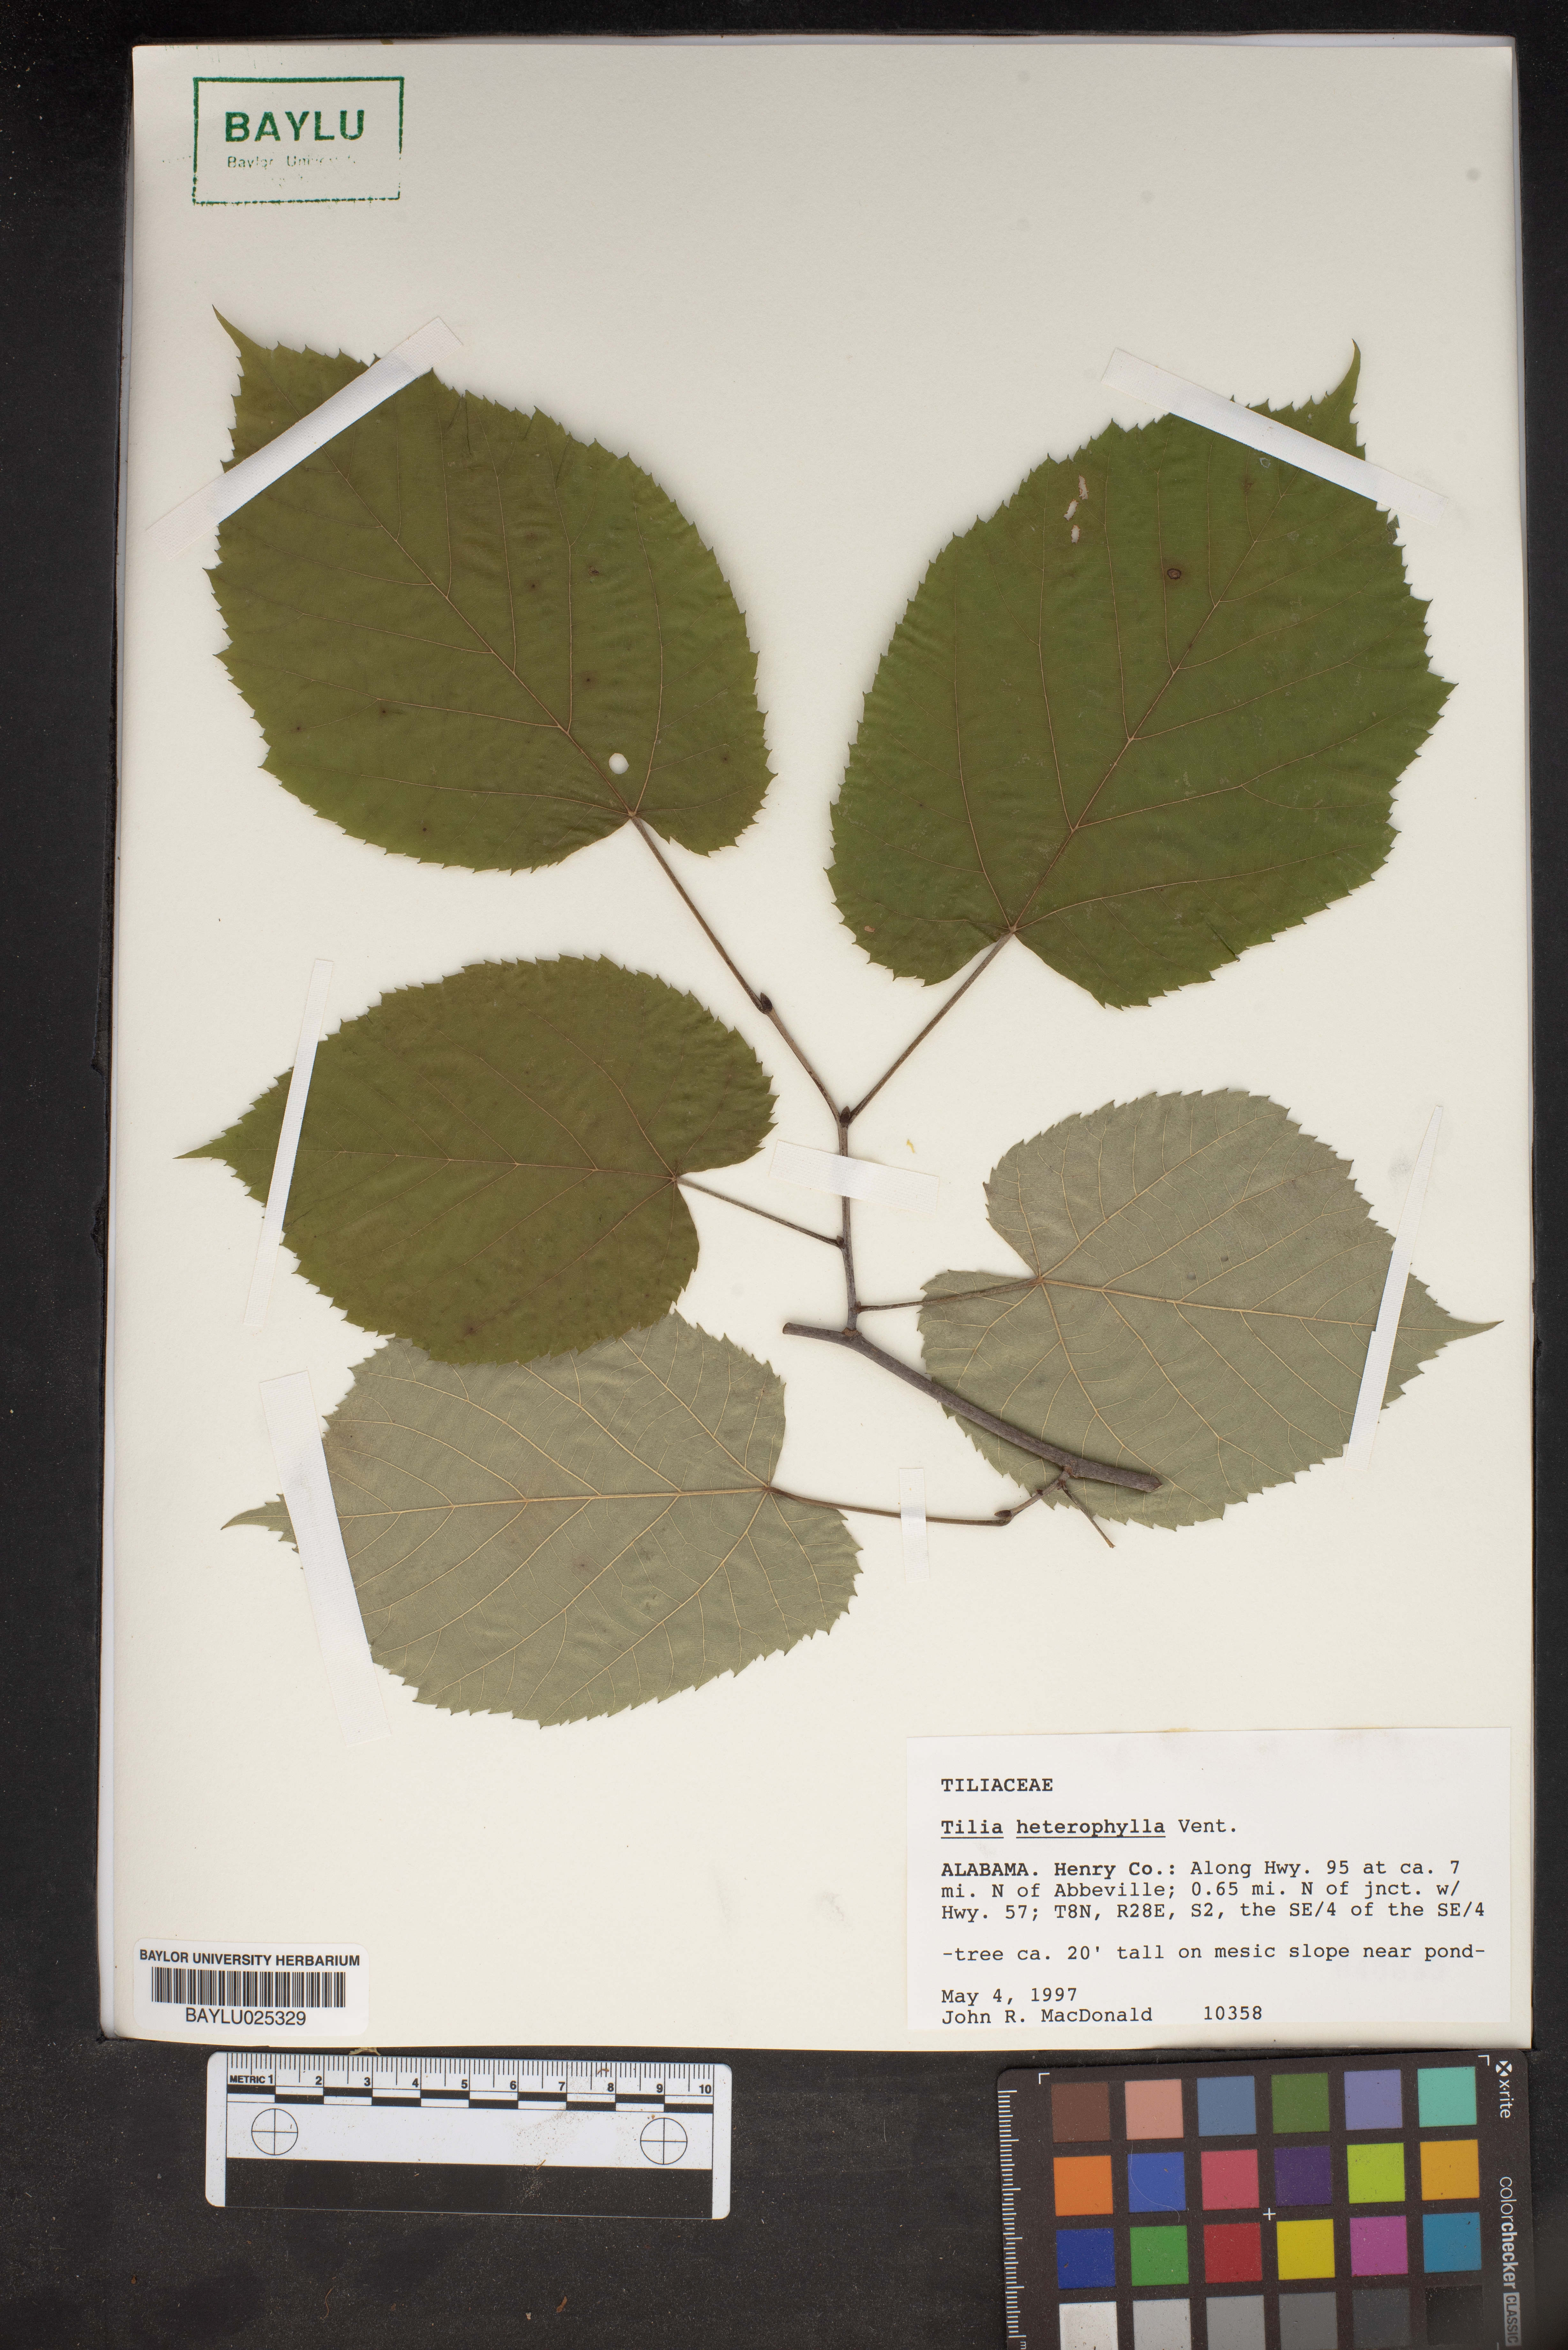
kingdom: Plantae
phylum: Tracheophyta
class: Magnoliopsida
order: Malvales
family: Malvaceae
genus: Tilia
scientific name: Tilia americana
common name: Basswood
